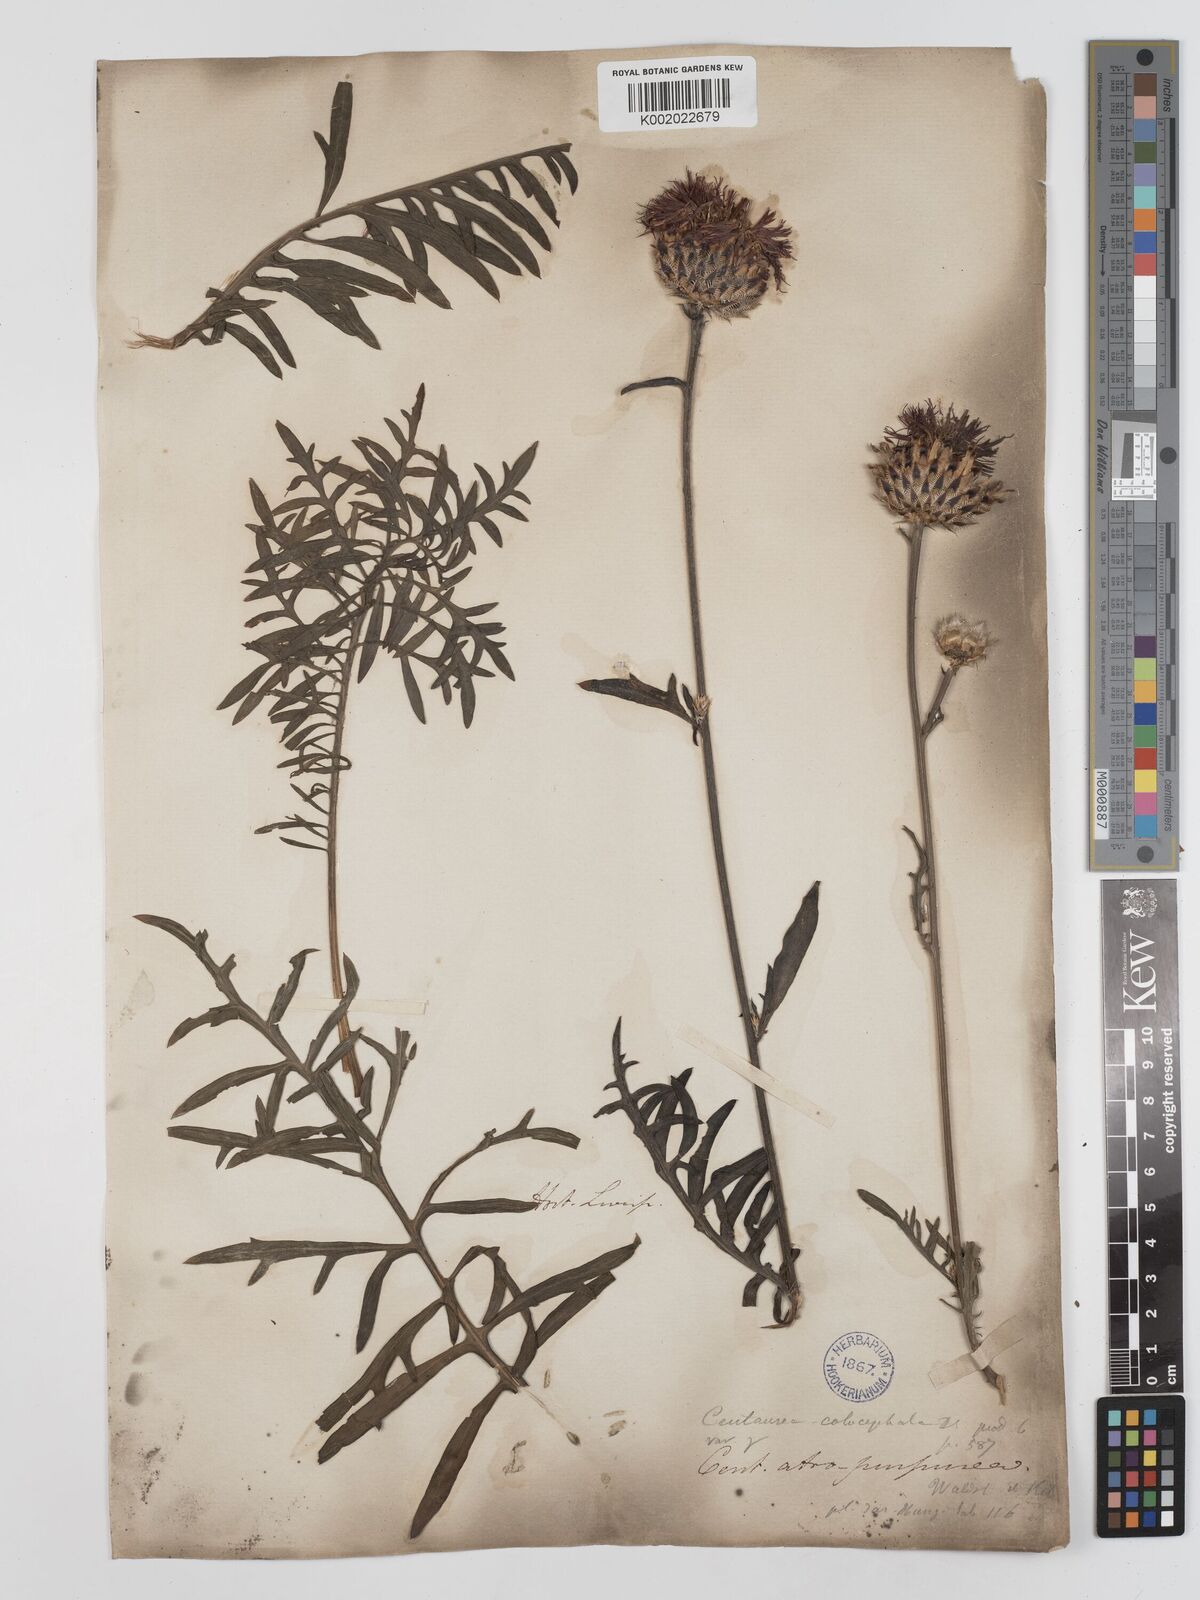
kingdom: Plantae
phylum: Tracheophyta
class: Magnoliopsida
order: Asterales
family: Asteraceae
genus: Centaurea
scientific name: Centaurea calocephala
